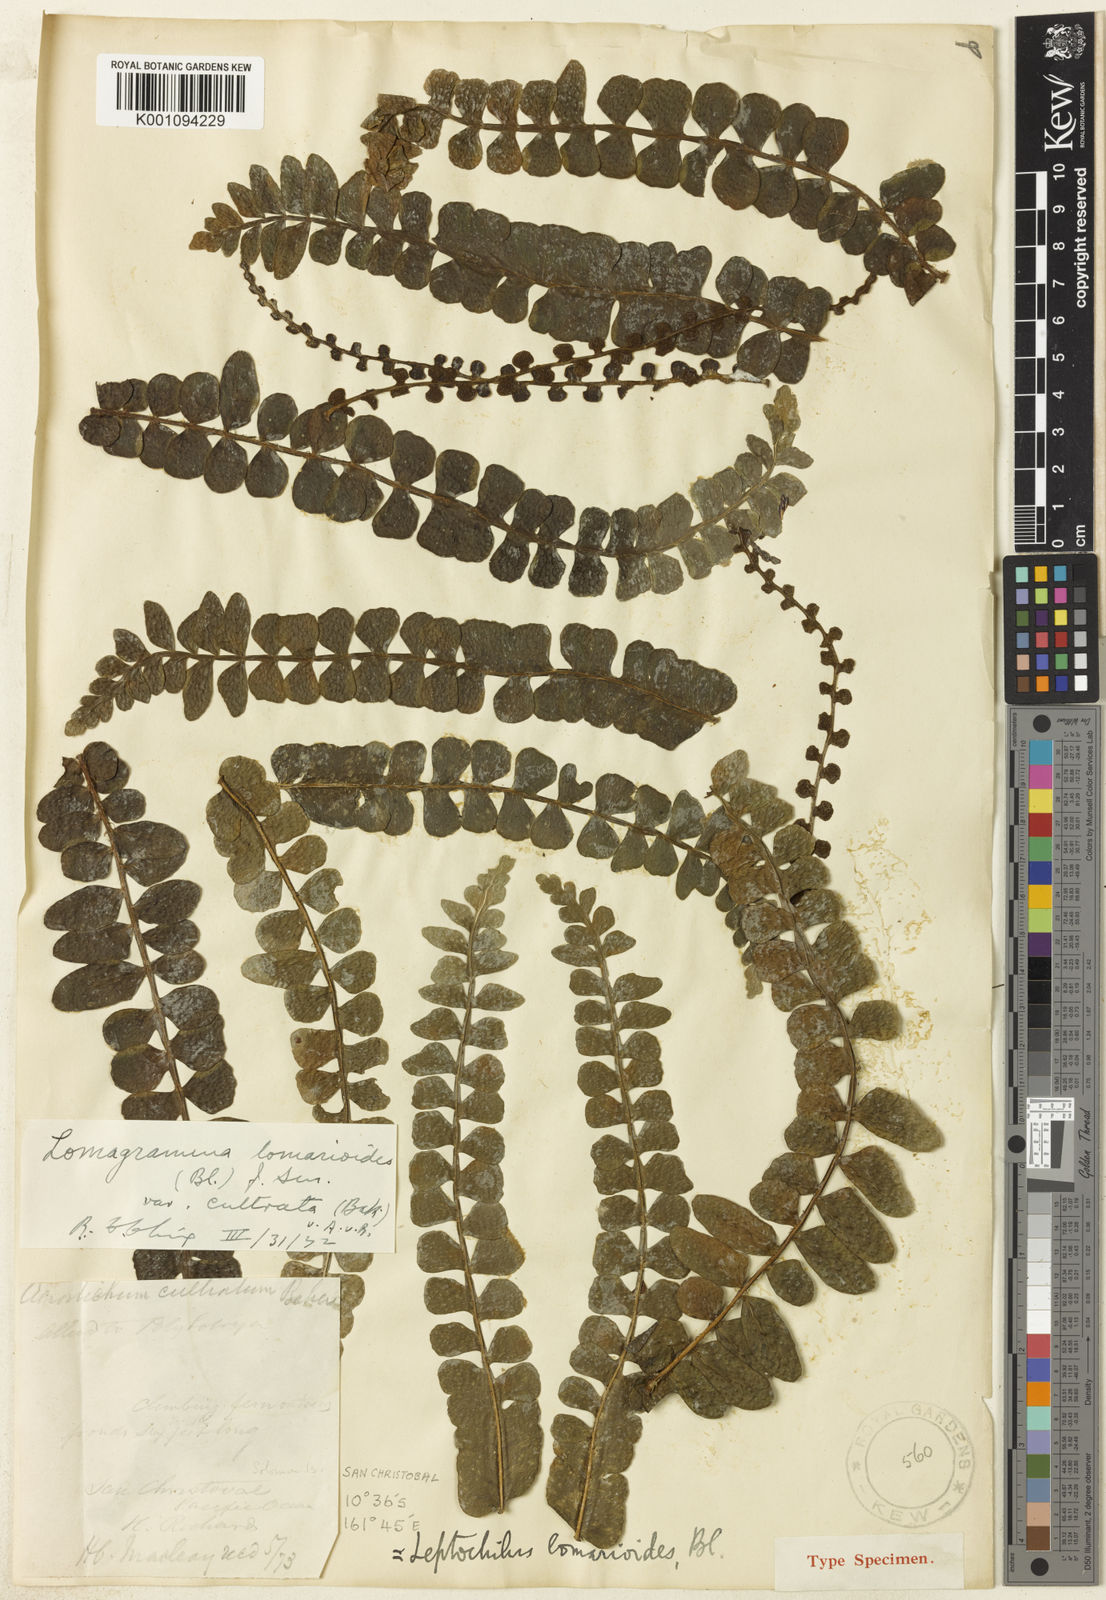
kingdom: Plantae
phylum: Tracheophyta
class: Polypodiopsida
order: Polypodiales
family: Dryopteridaceae
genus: Lomagramma
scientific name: Lomagramma cultrata
